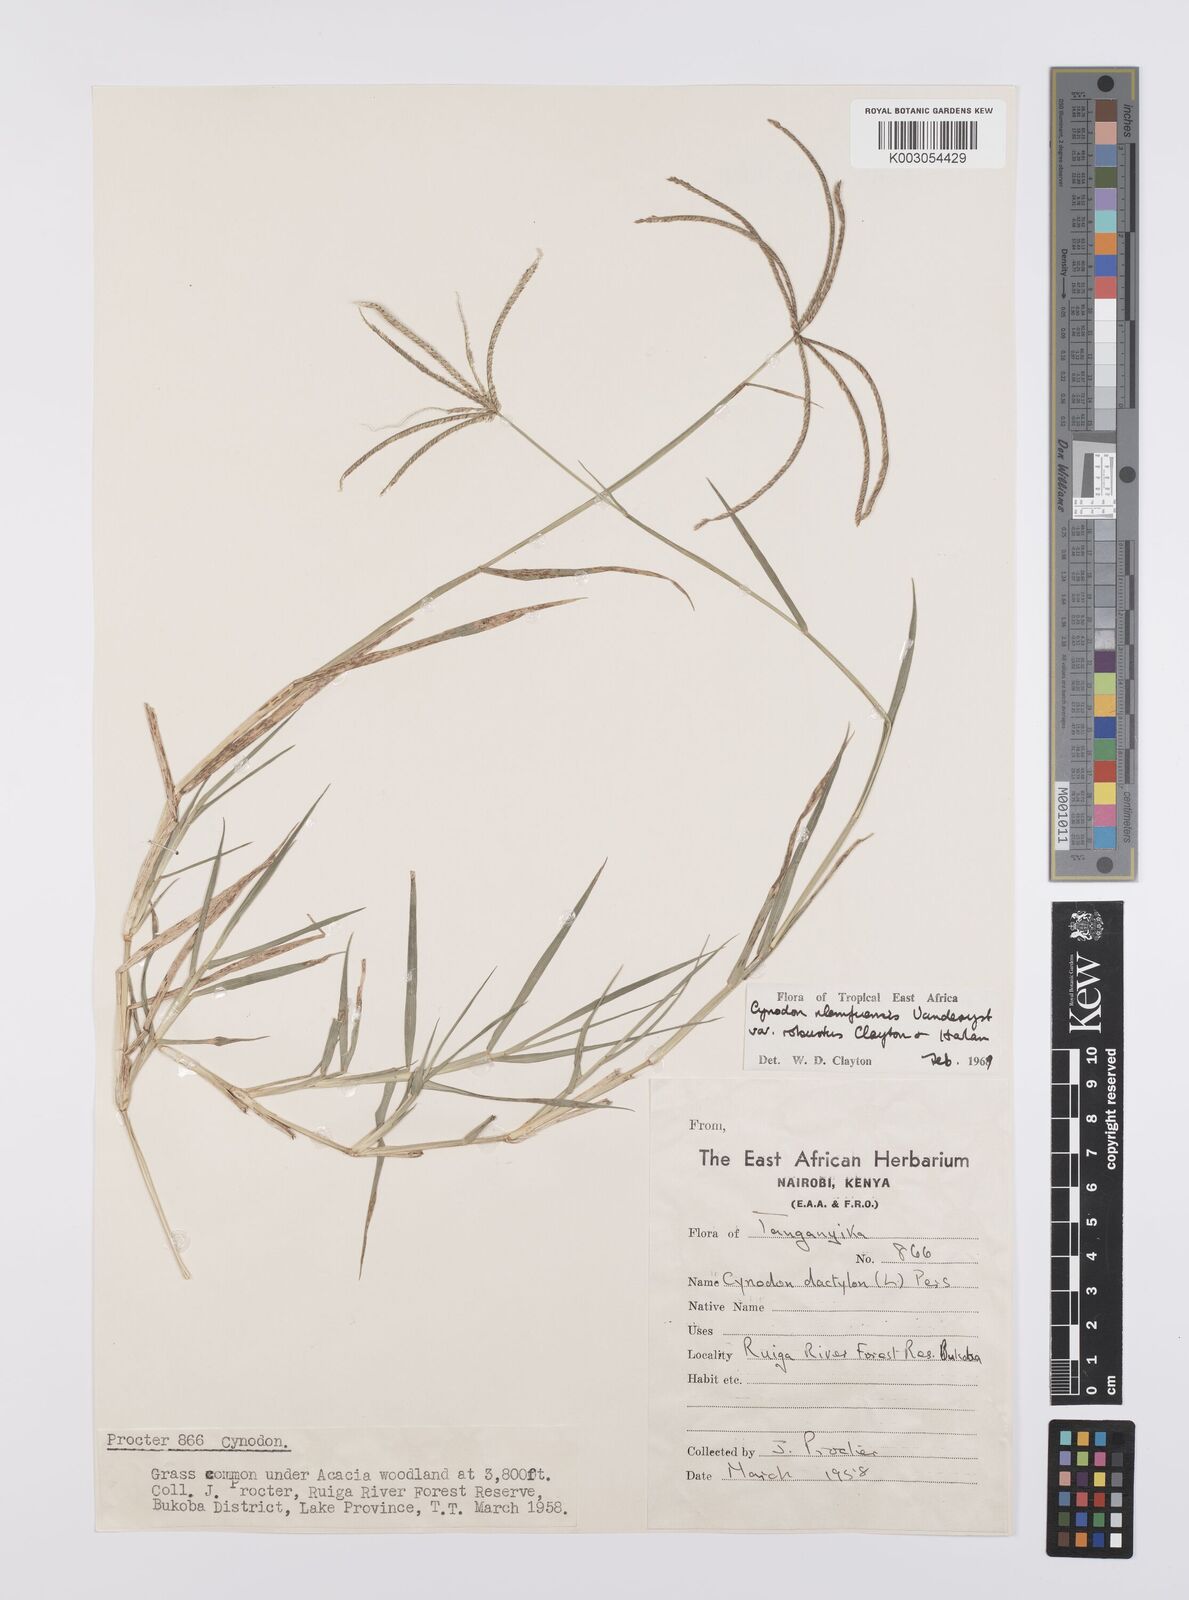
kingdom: Plantae
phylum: Tracheophyta
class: Liliopsida
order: Poales
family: Poaceae
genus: Cynodon
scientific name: Cynodon nlemfuensis
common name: African bermudagrass
